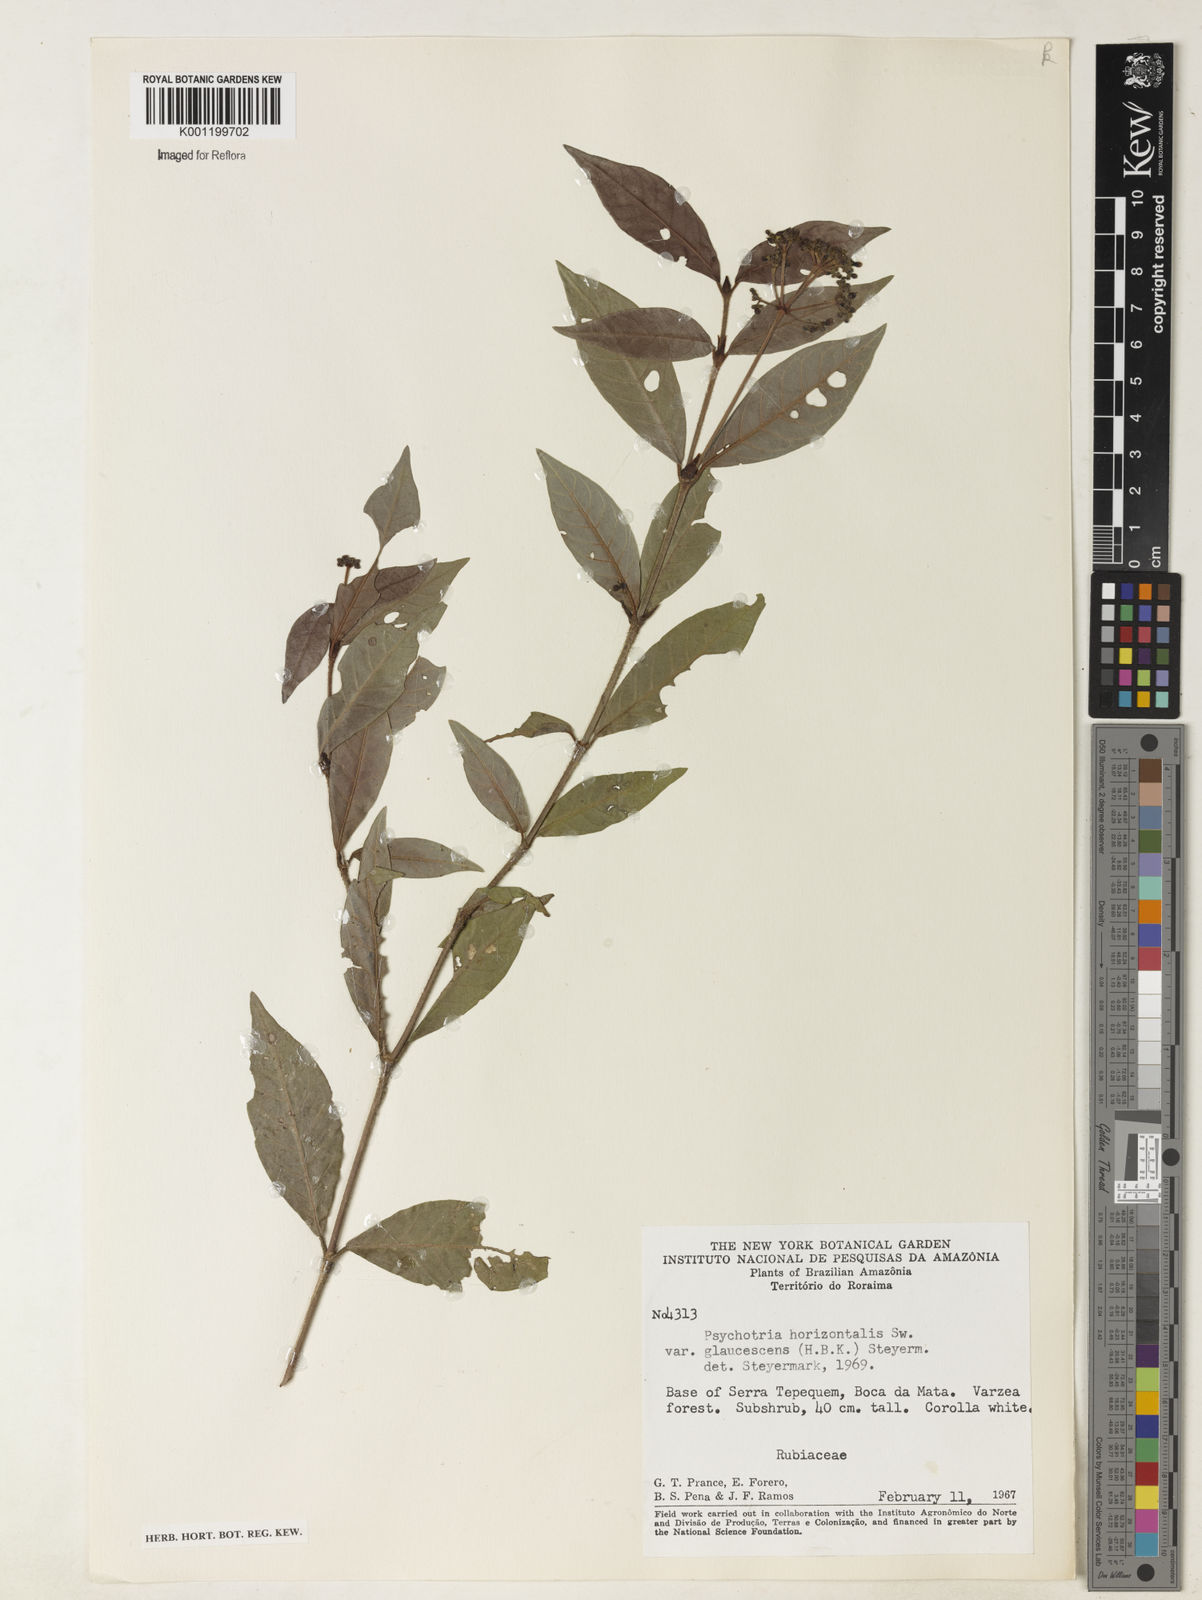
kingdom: Plantae
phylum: Tracheophyta
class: Magnoliopsida
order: Gentianales
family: Rubiaceae
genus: Psychotria
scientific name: Psychotria horizontalis
